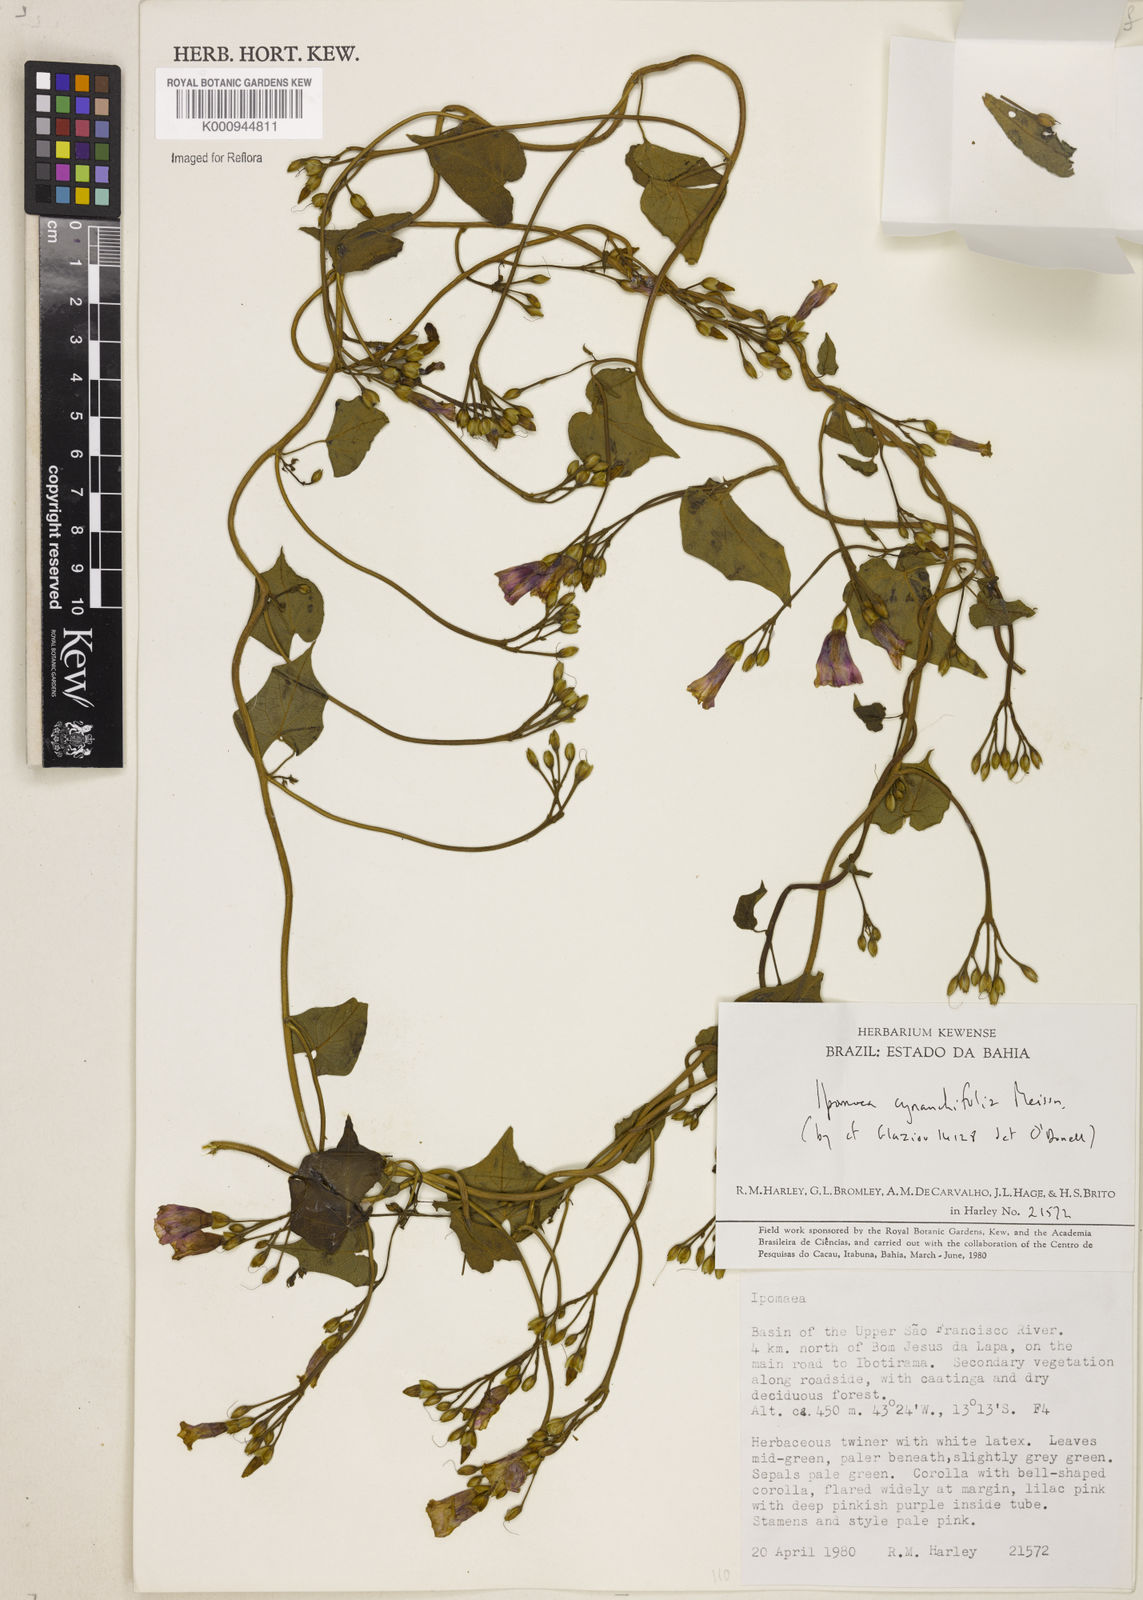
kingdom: Plantae
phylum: Tracheophyta
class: Magnoliopsida
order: Solanales
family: Convolvulaceae
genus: Ipomoea
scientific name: Ipomoea cynanchifolia
